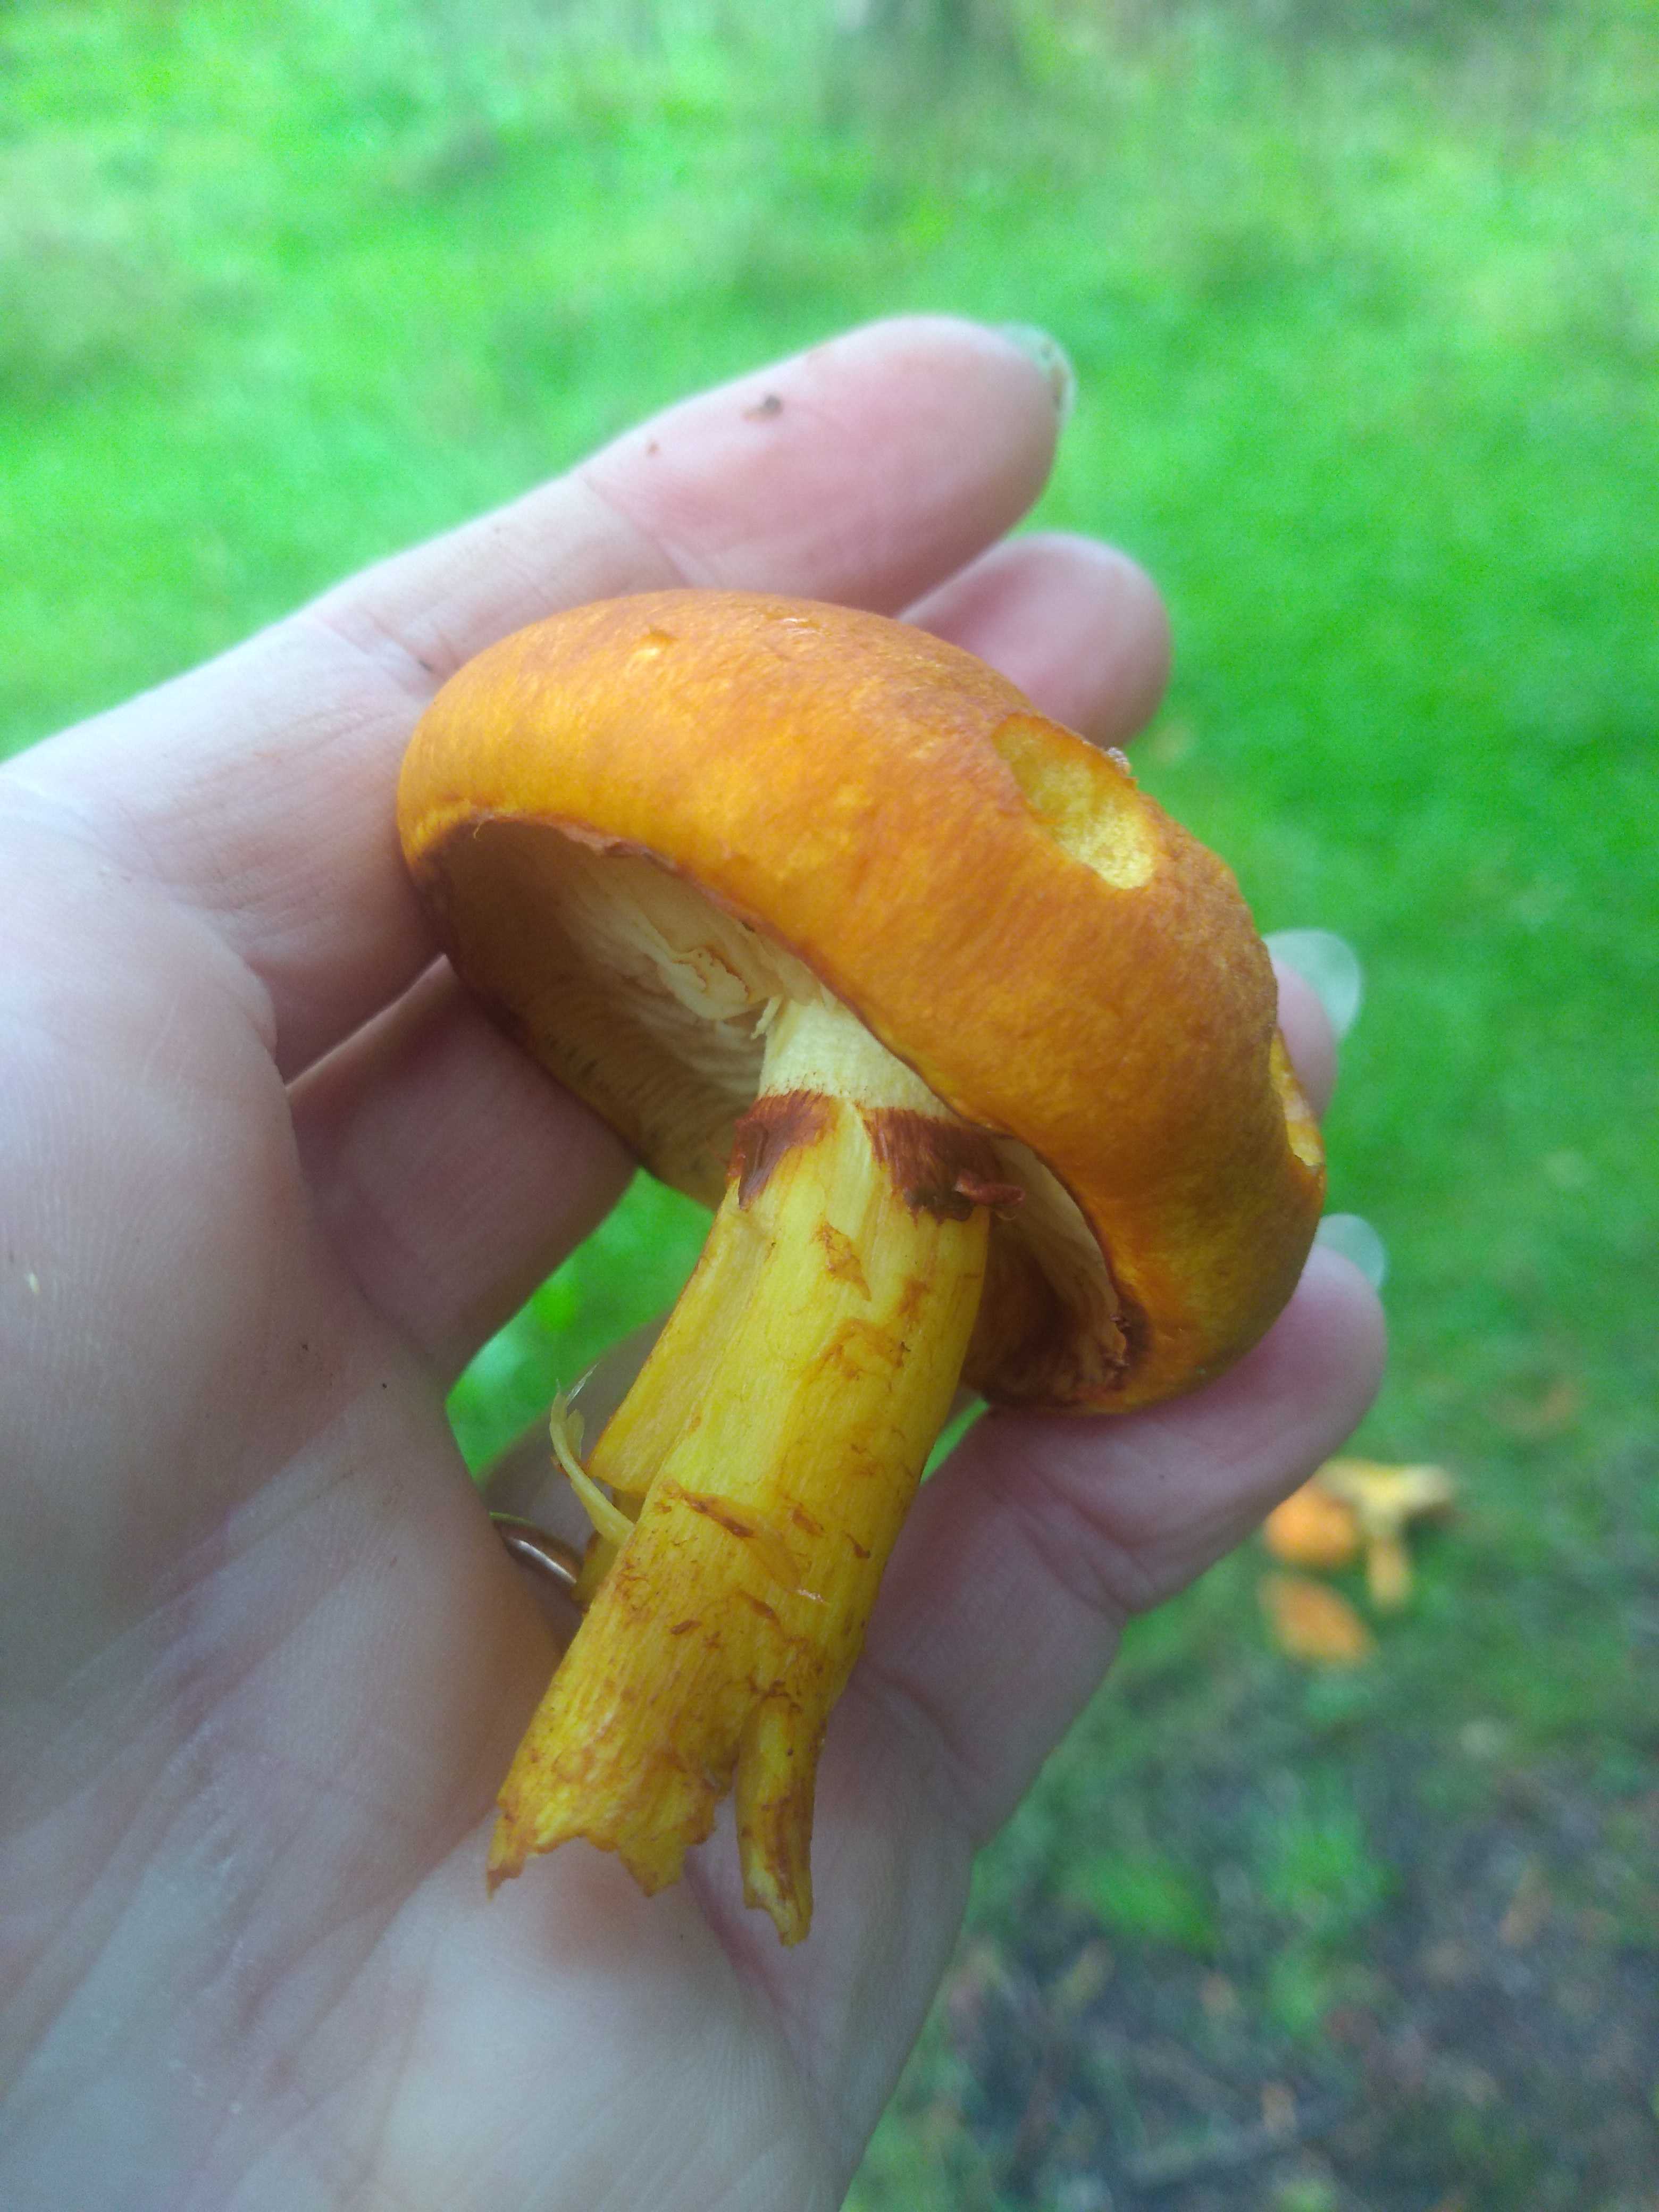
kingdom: Fungi
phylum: Basidiomycota
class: Agaricomycetes
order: Agaricales
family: Hymenogastraceae
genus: Gymnopilus
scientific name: Gymnopilus spectabilis
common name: fibret flammehat
